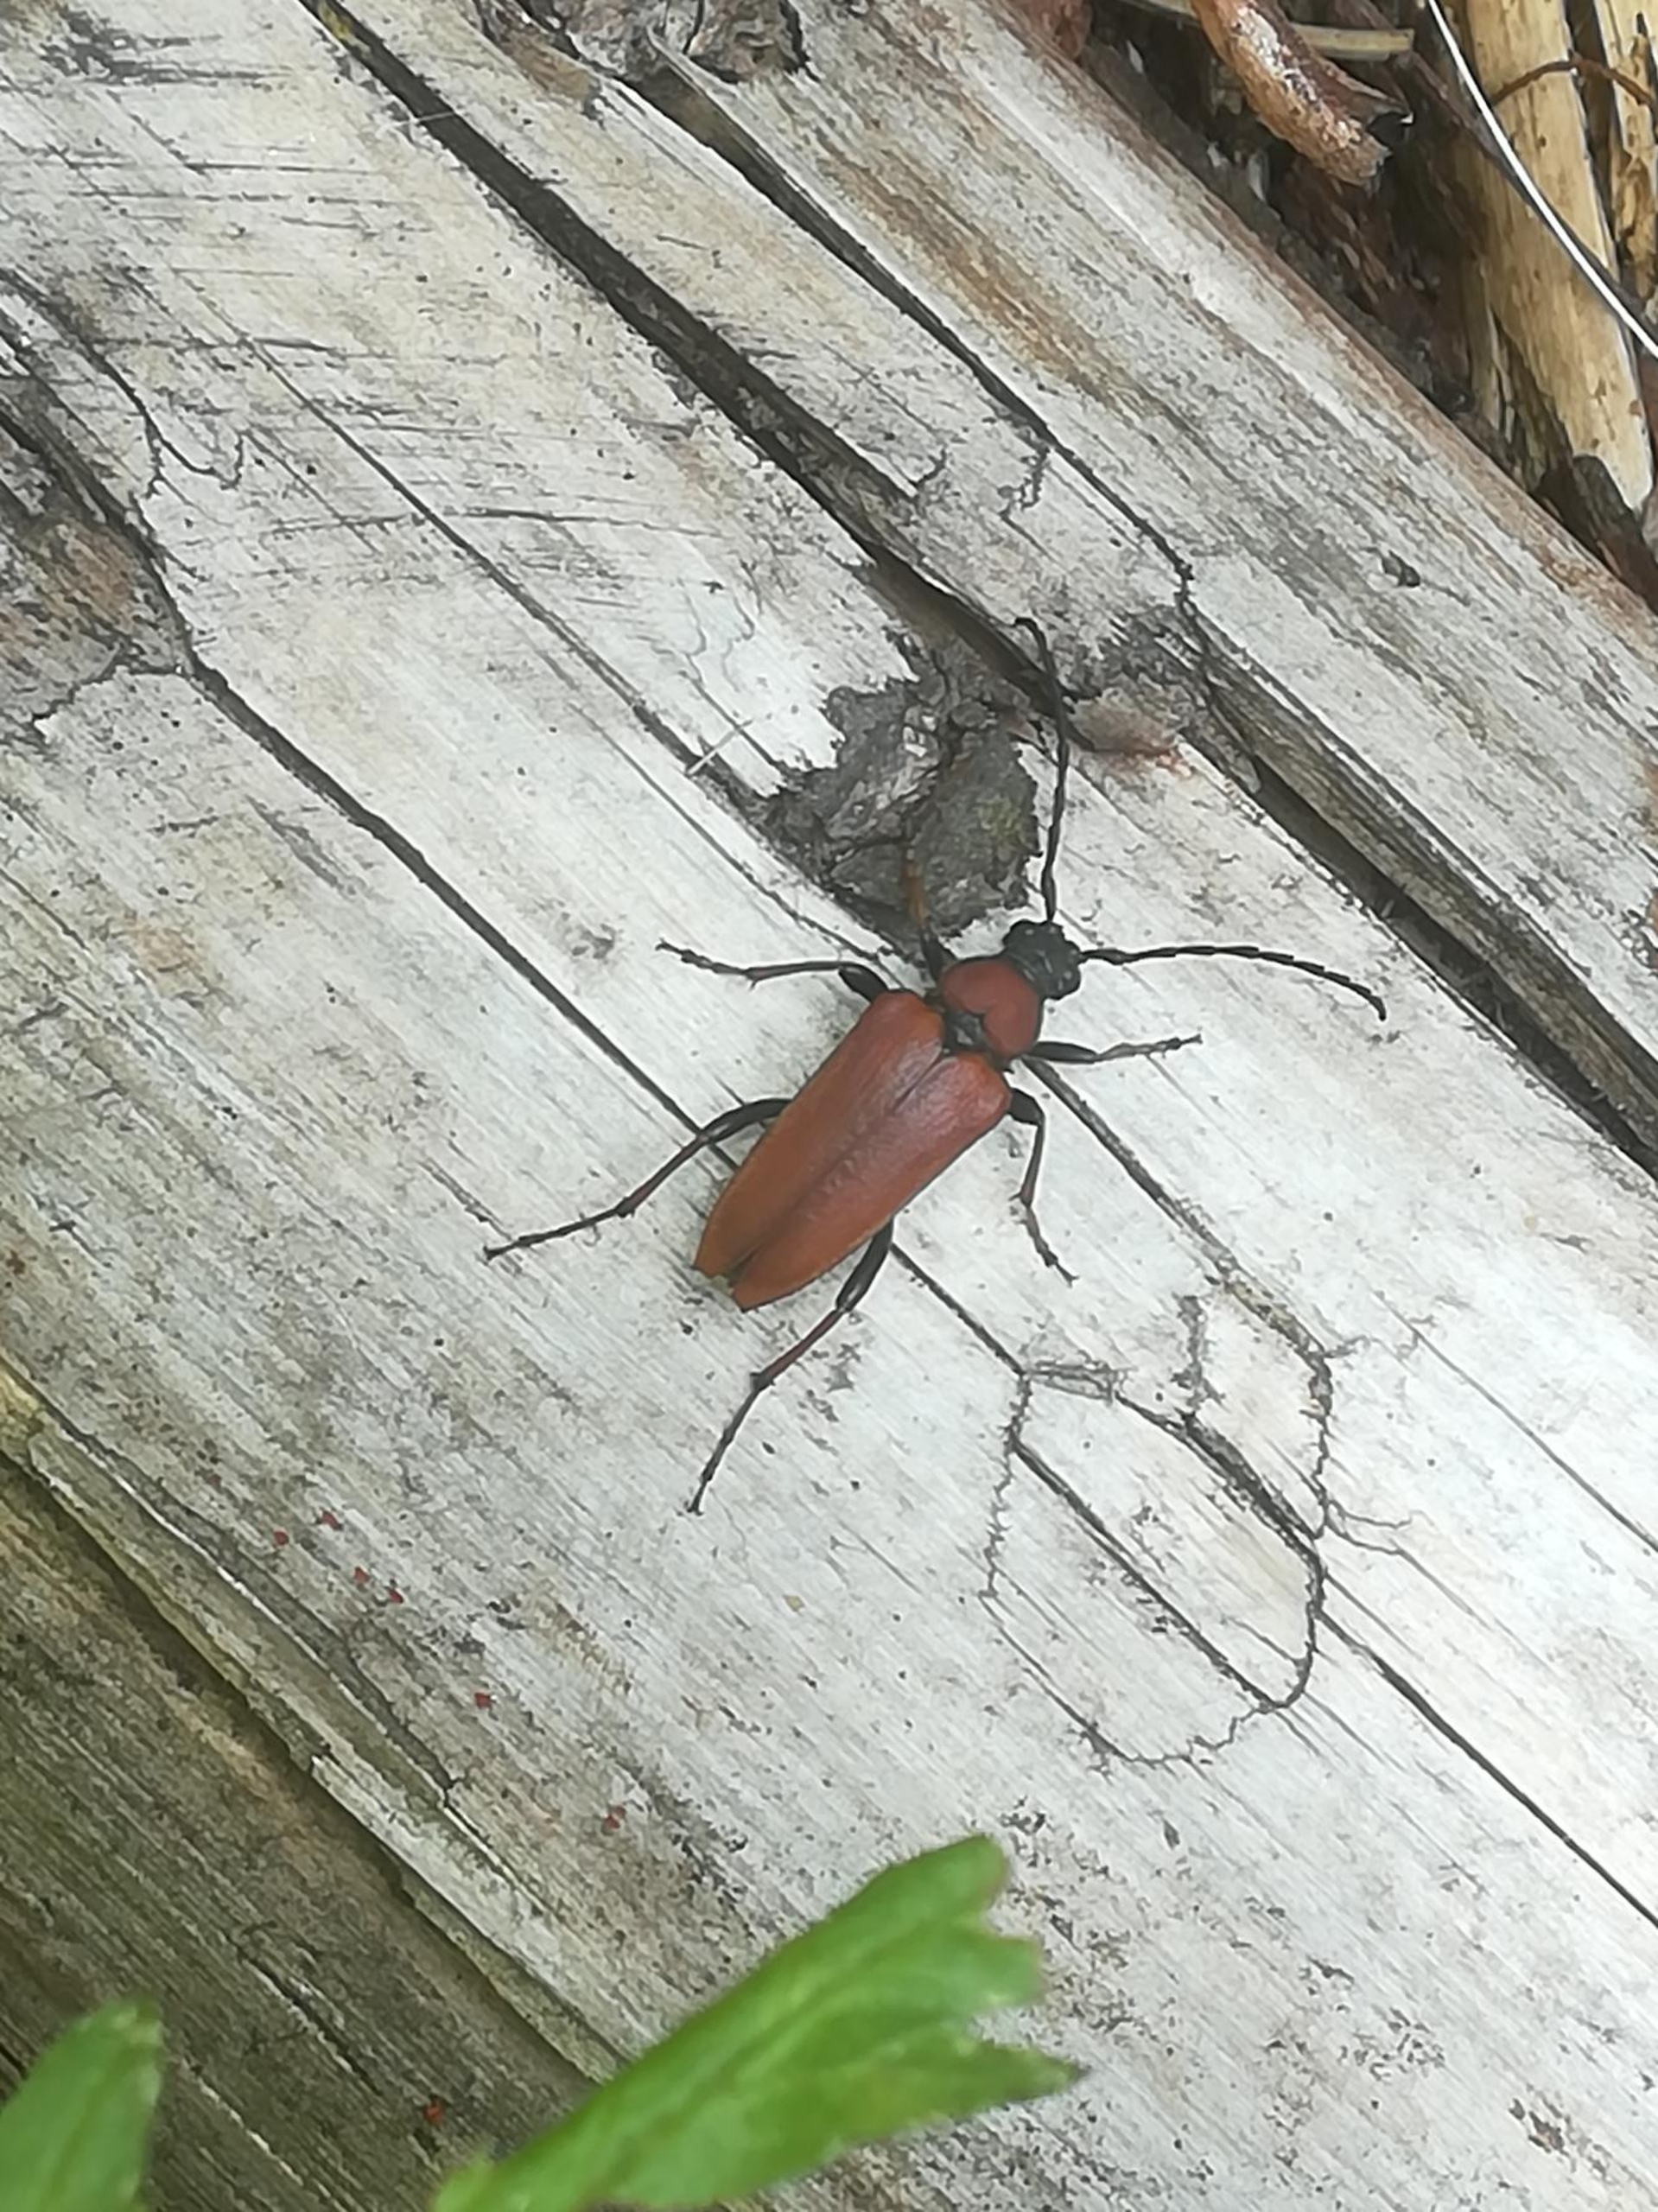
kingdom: Animalia
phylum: Arthropoda
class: Insecta
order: Coleoptera
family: Cerambycidae
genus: Stictoleptura
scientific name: Stictoleptura rubra
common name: Rød blomsterbuk
